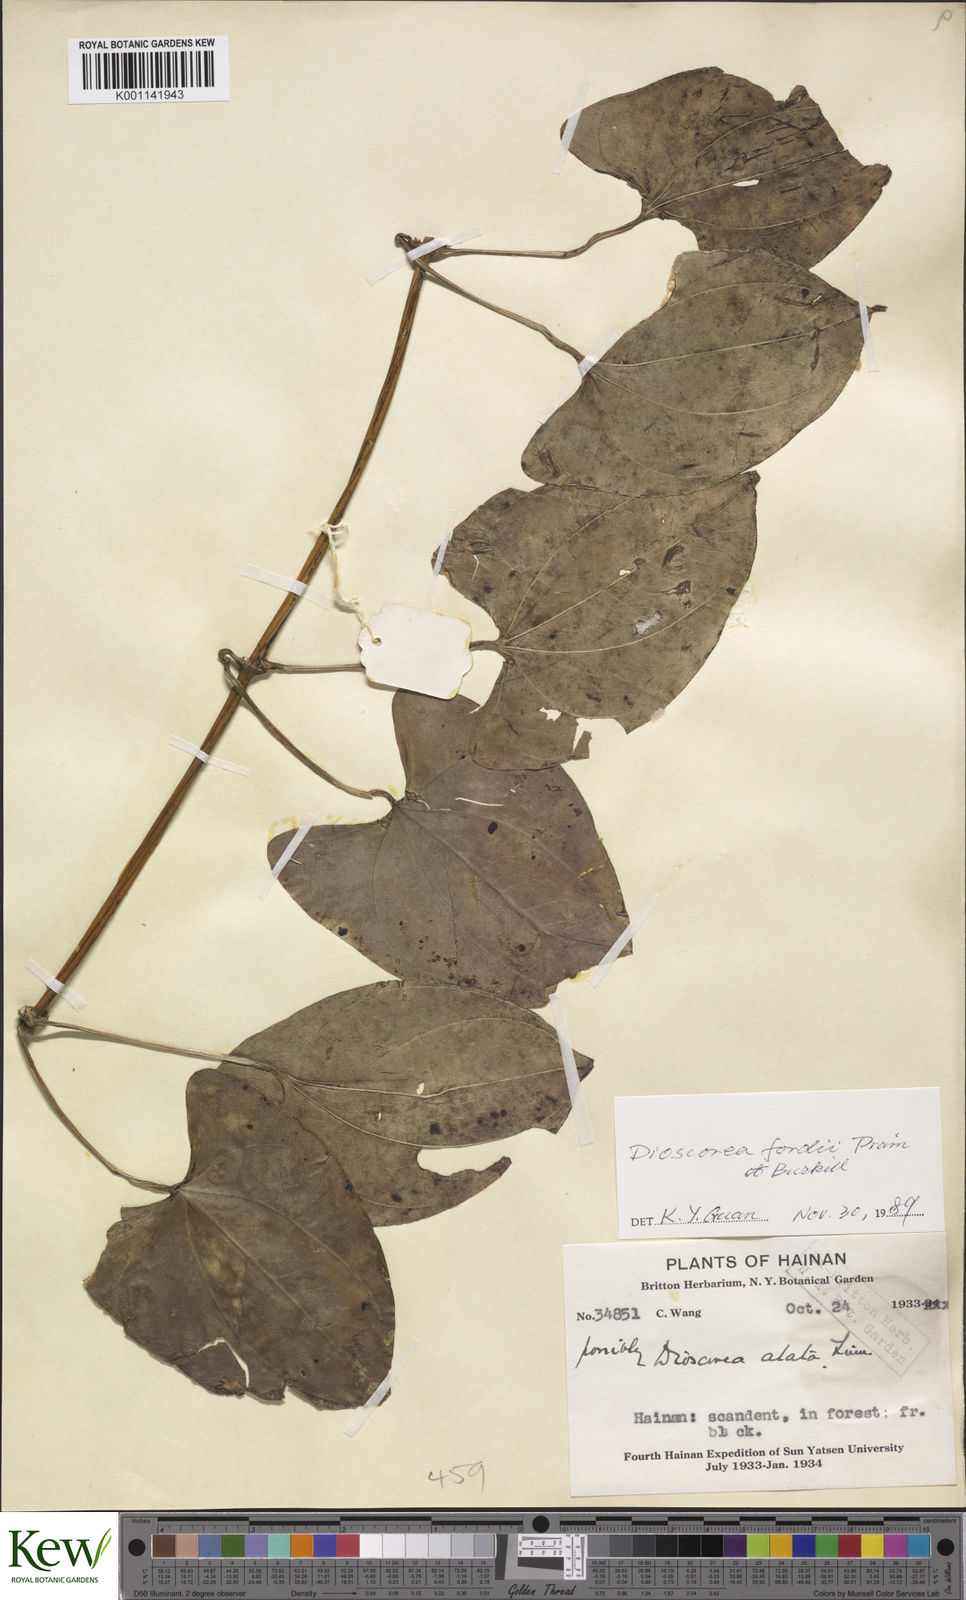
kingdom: Plantae
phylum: Tracheophyta
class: Liliopsida
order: Dioscoreales
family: Dioscoreaceae
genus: Dioscorea
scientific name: Dioscorea fordii
